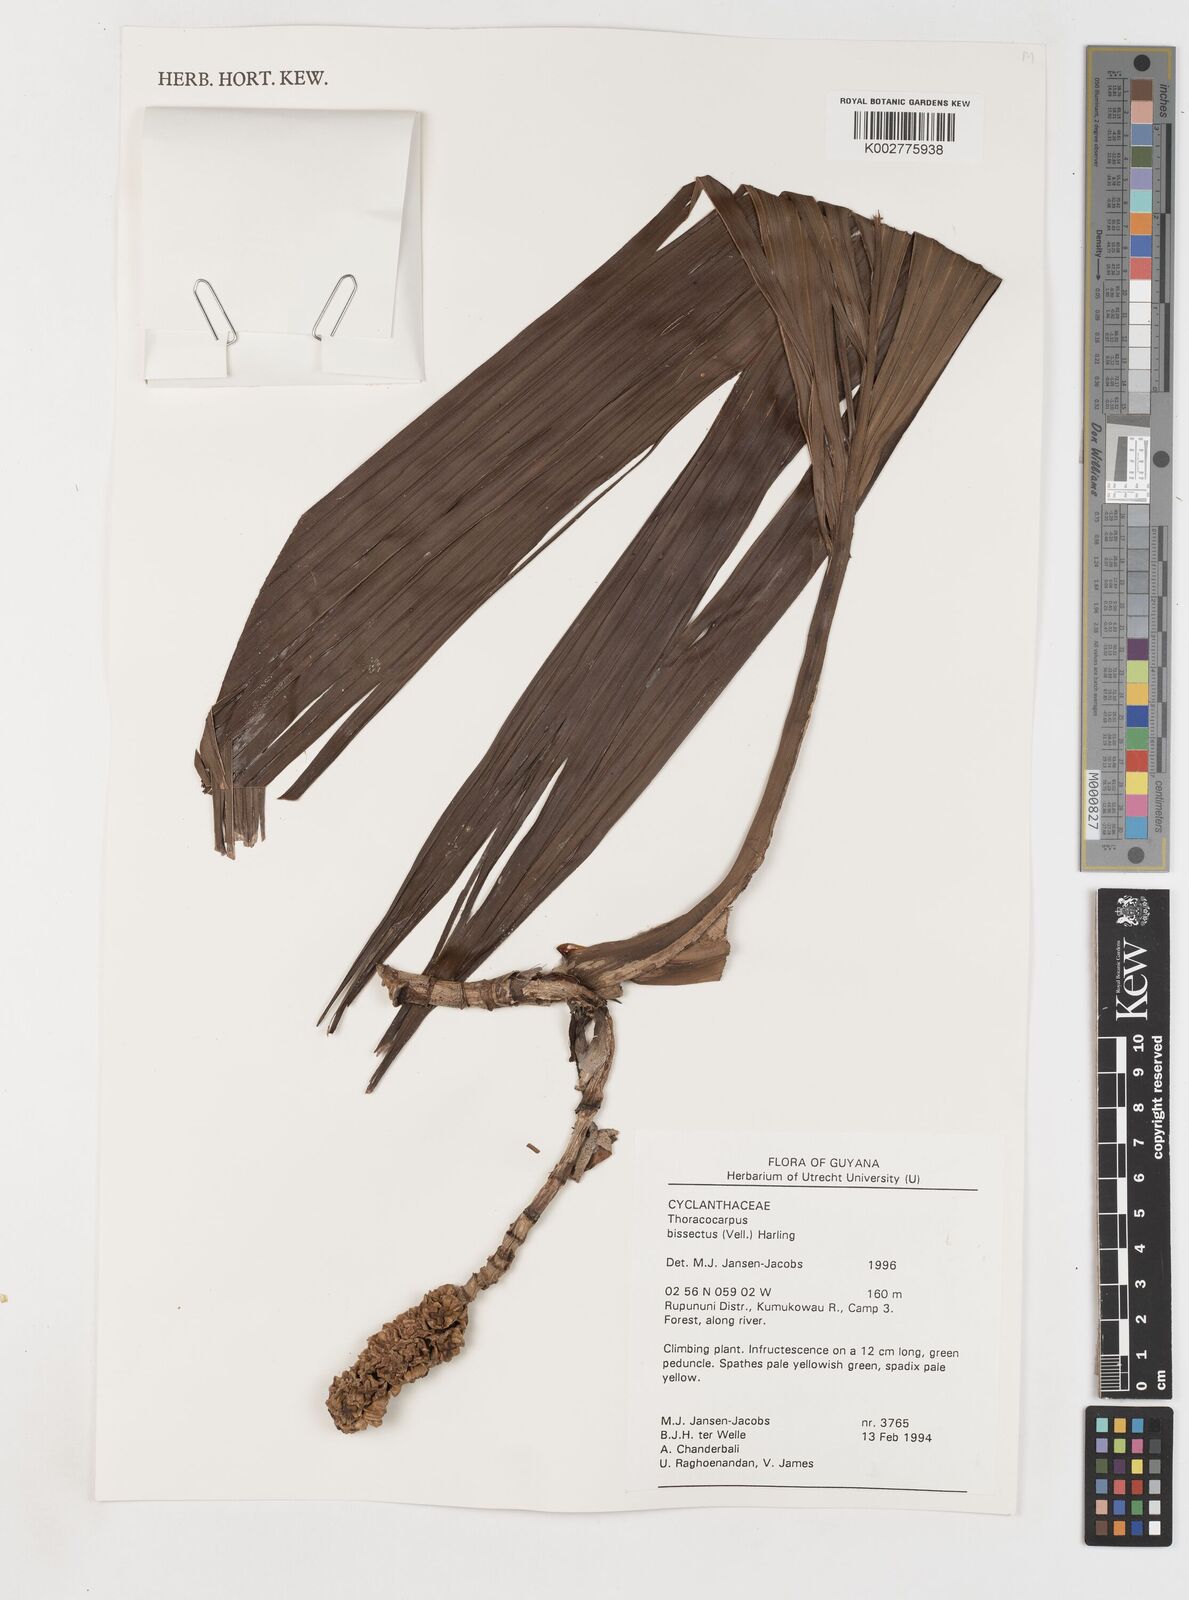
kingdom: Plantae
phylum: Tracheophyta
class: Liliopsida
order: Pandanales
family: Cyclanthaceae
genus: Thoracocarpus
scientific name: Thoracocarpus bissectus
